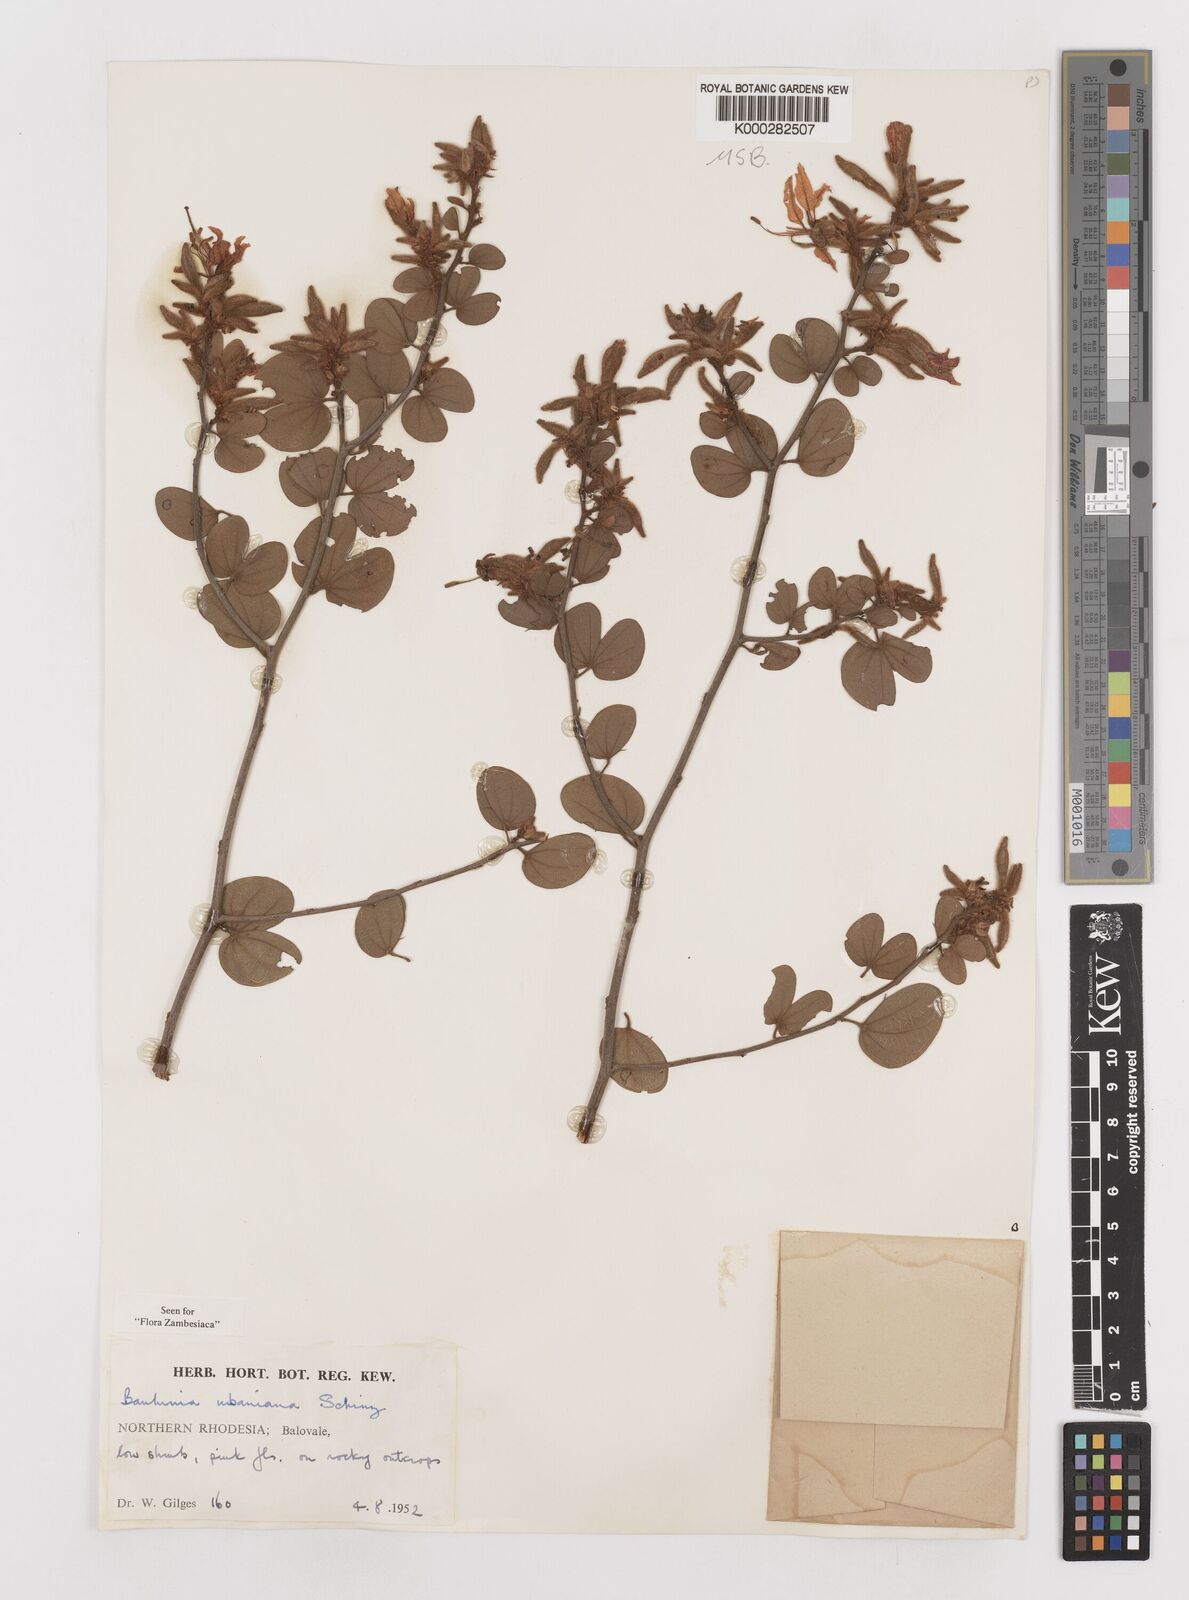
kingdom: Plantae
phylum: Tracheophyta
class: Magnoliopsida
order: Fabales
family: Fabaceae
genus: Bauhinia
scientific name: Bauhinia urbaniana
